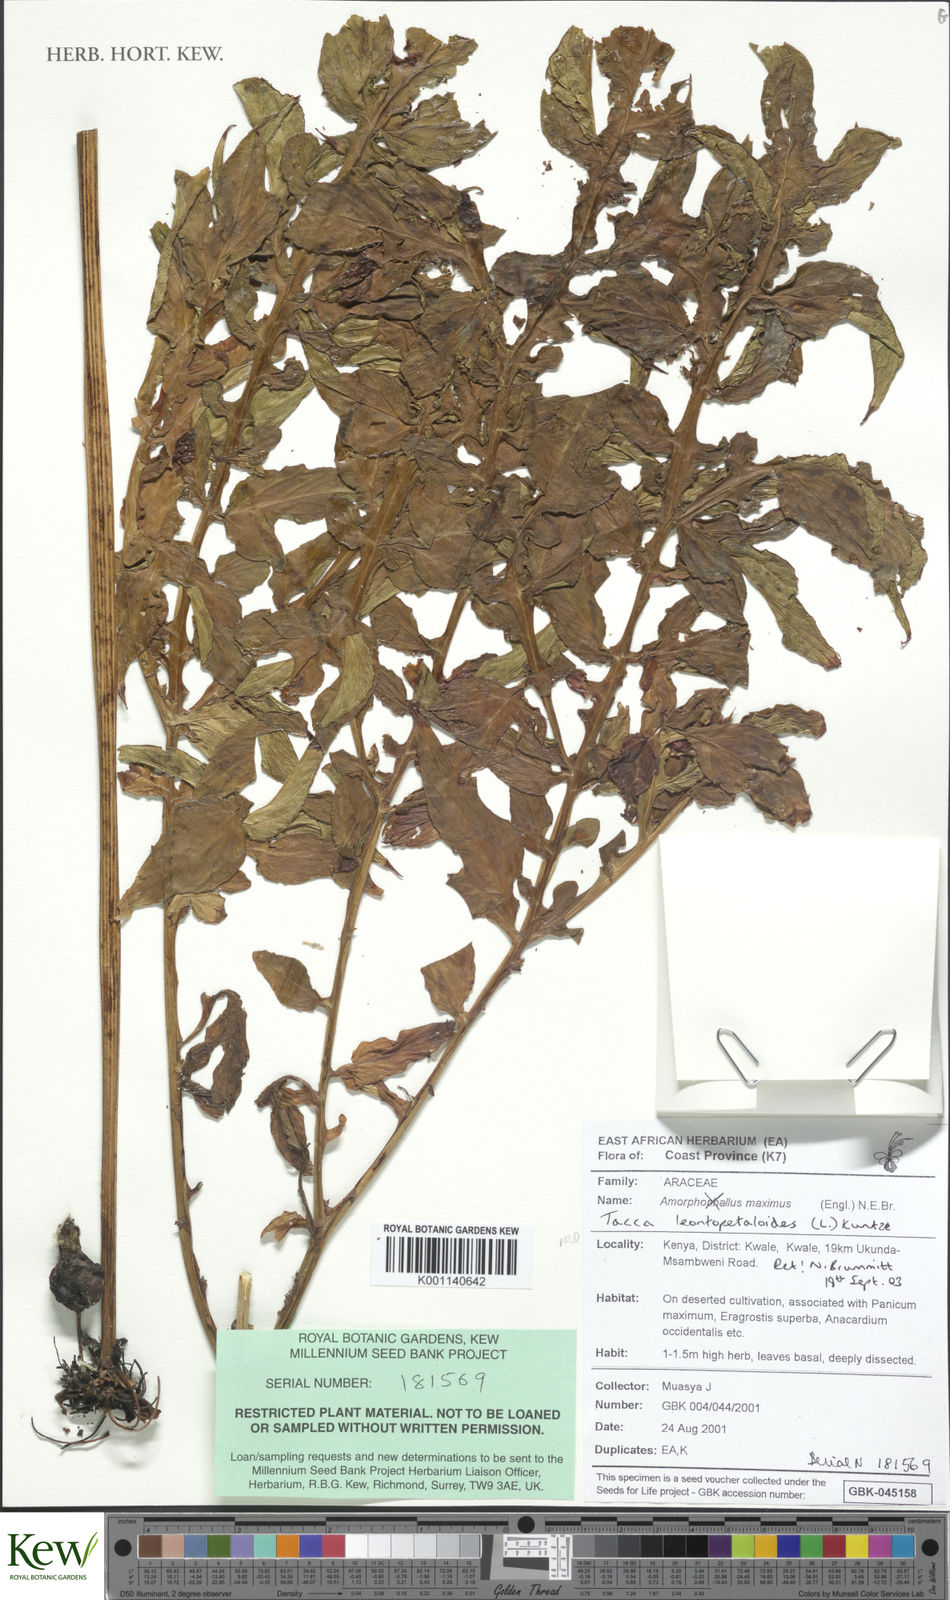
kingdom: Plantae
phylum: Tracheophyta
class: Liliopsida
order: Dioscoreales
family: Dioscoreaceae
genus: Tacca
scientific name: Tacca leontopetaloides
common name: Arrowroot
